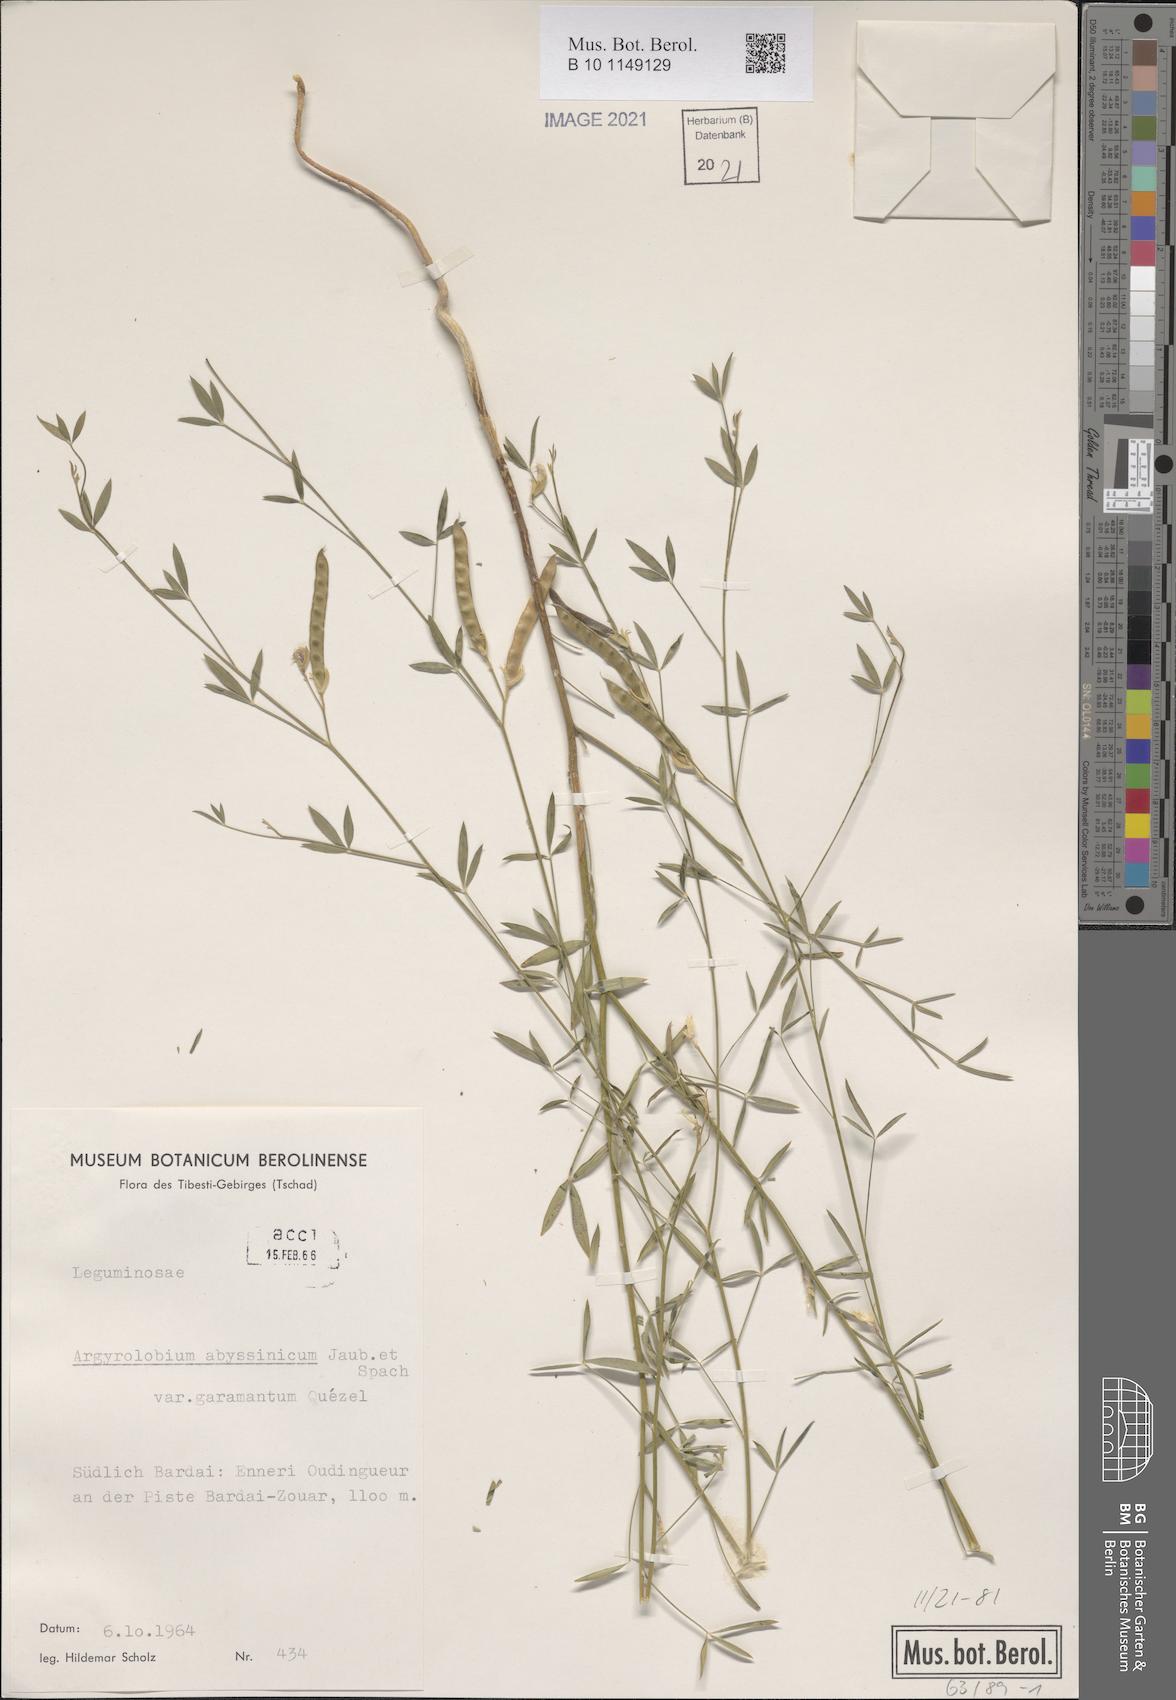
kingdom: Plantae
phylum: Tracheophyta
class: Magnoliopsida
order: Fabales
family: Fabaceae
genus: Argyrolobium
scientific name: Argyrolobium arabicum
